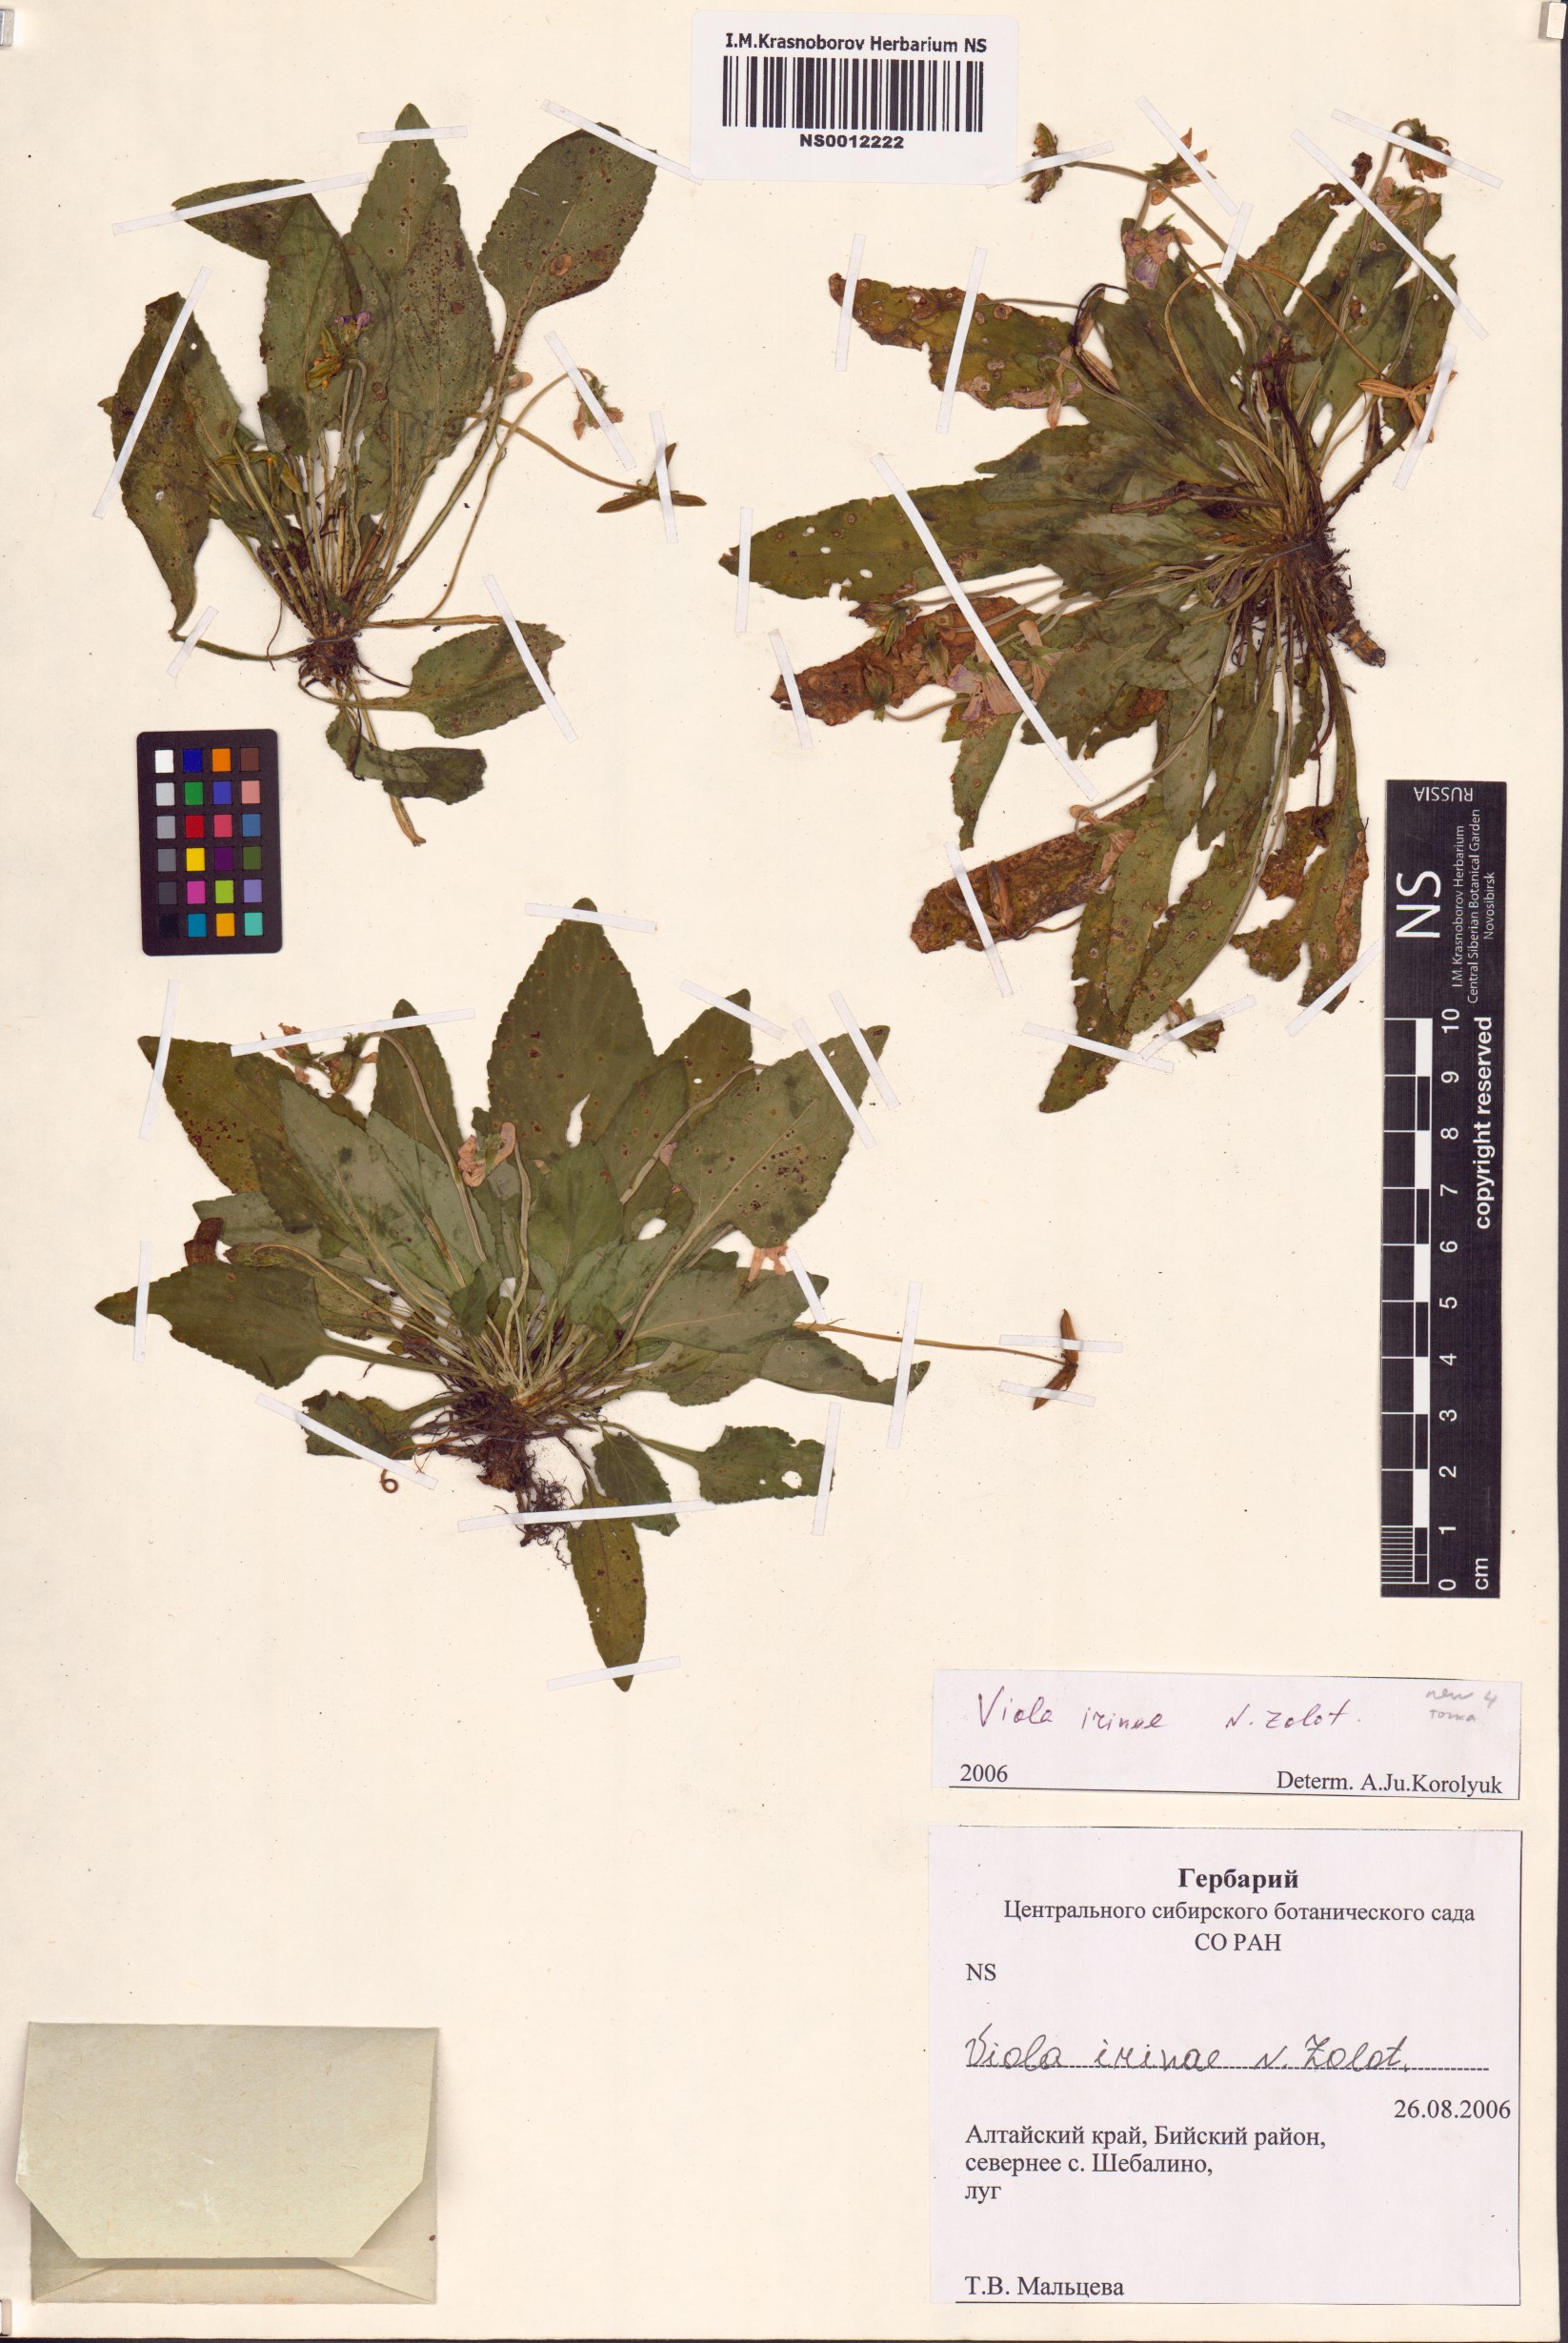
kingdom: Plantae
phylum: Tracheophyta
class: Magnoliopsida
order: Malpighiales
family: Violaceae
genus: Viola
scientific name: Viola prionantha
